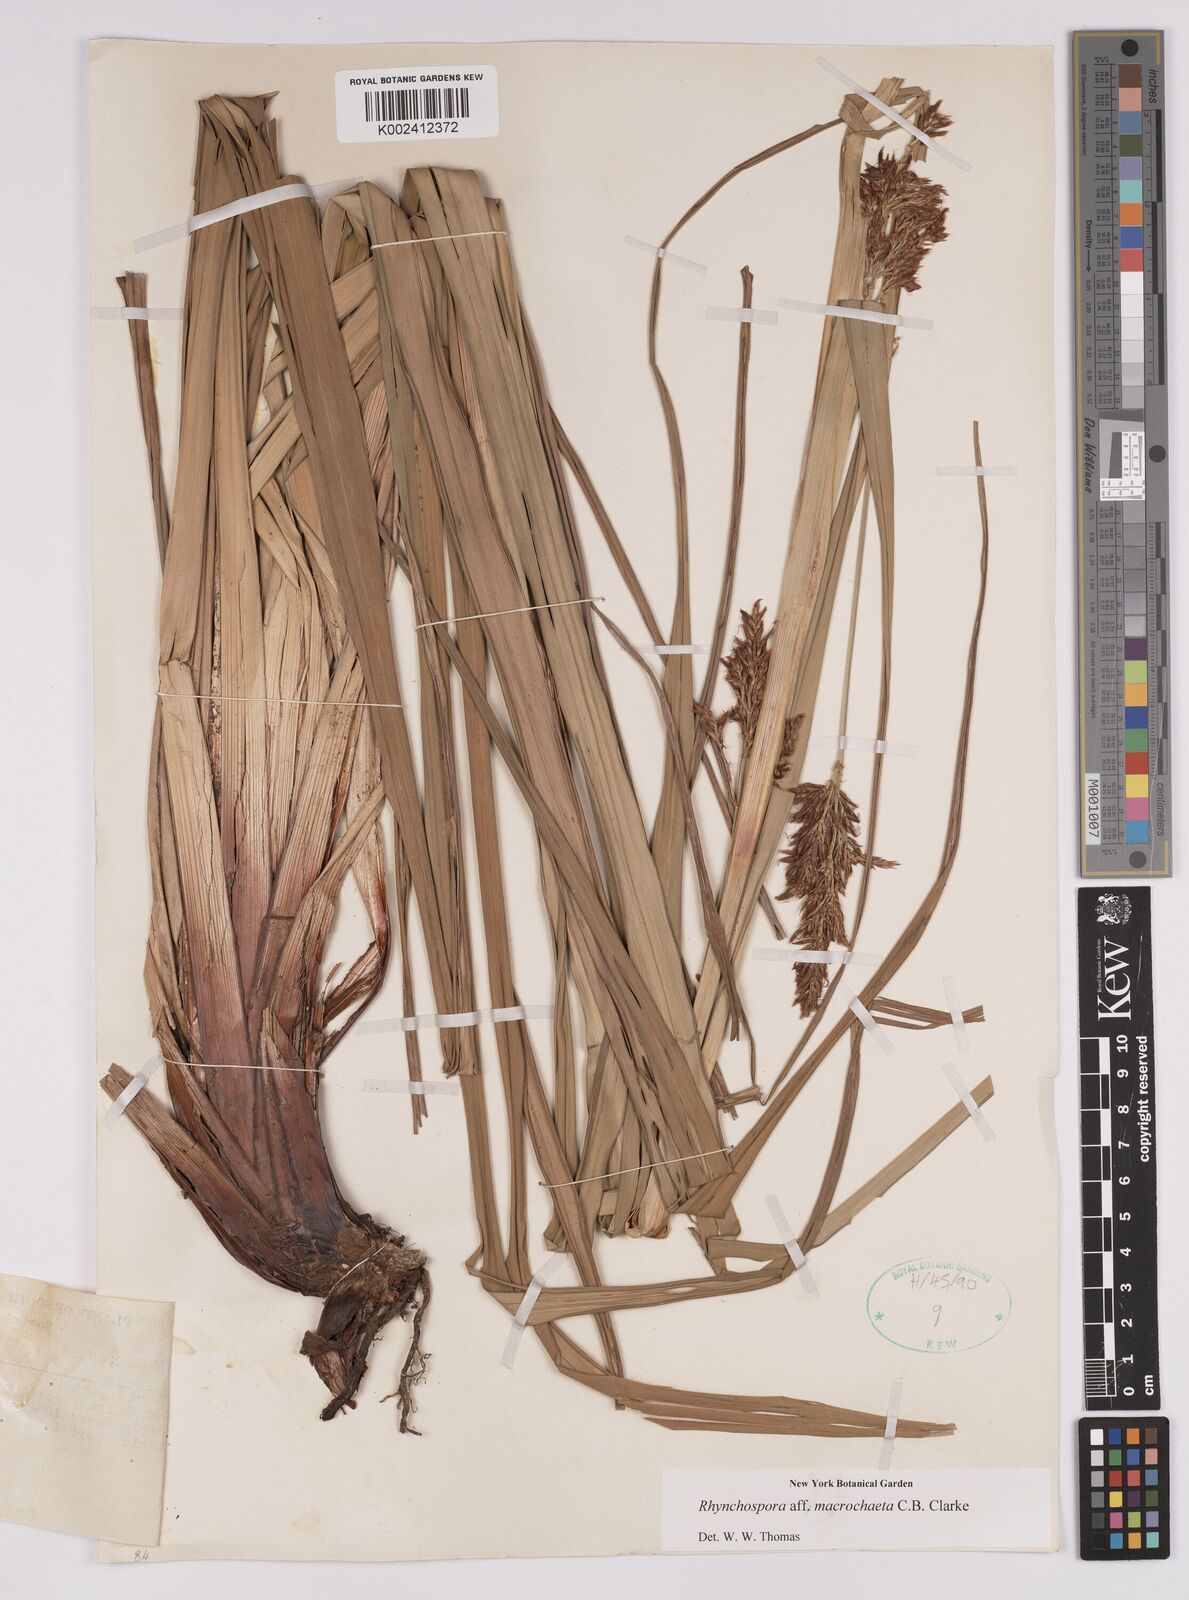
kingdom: Plantae
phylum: Tracheophyta
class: Liliopsida
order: Poales
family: Cyperaceae
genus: Rhynchospora
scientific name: Rhynchospora macrochaeta
